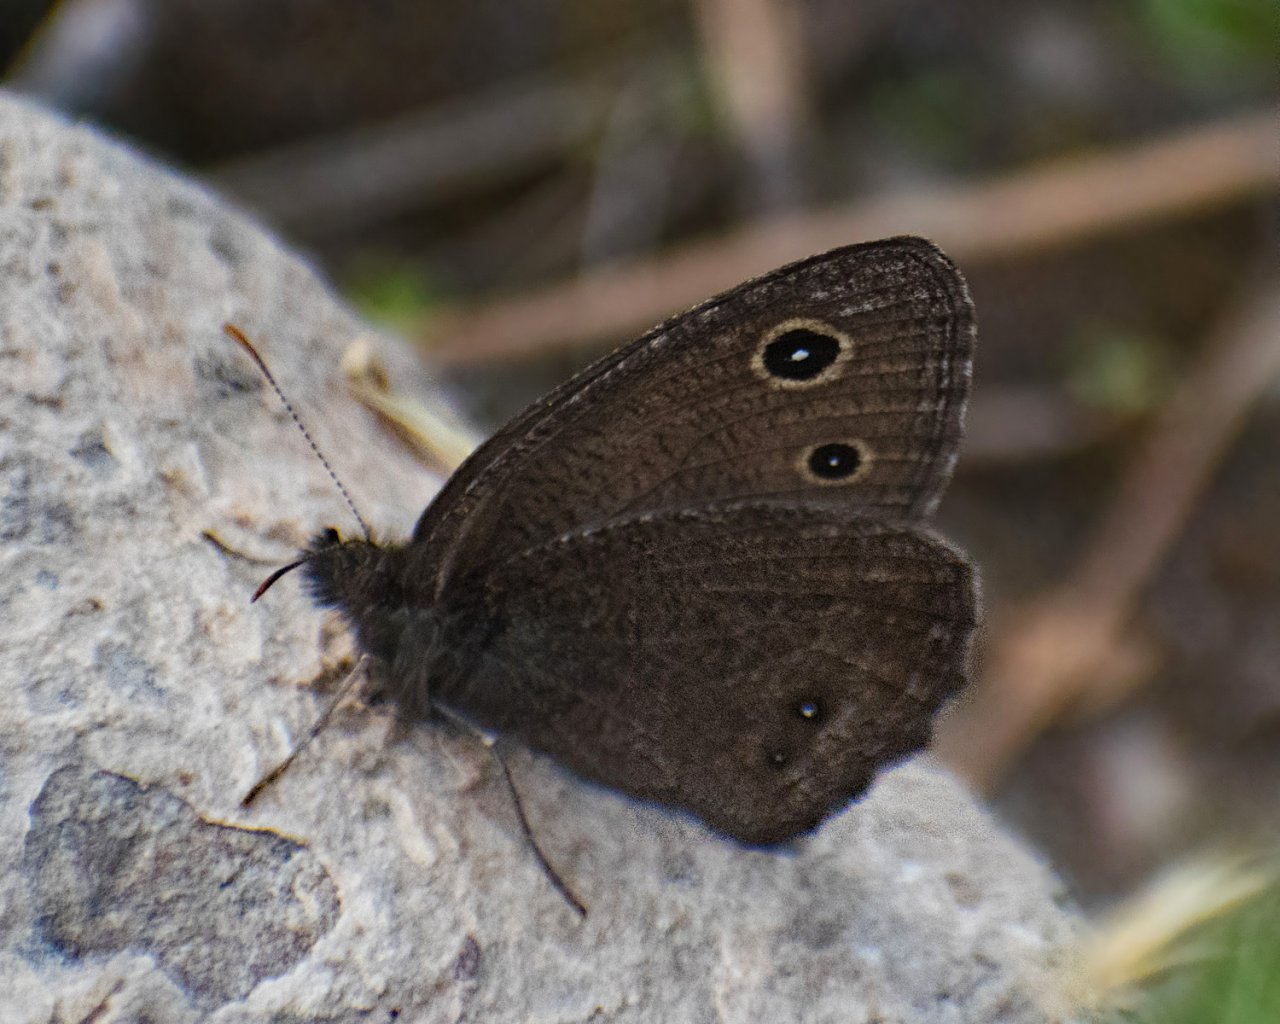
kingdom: Animalia
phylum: Arthropoda
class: Insecta
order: Lepidoptera
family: Nymphalidae
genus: Cercyonis
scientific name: Cercyonis oetus
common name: Small Wood-Nymph
